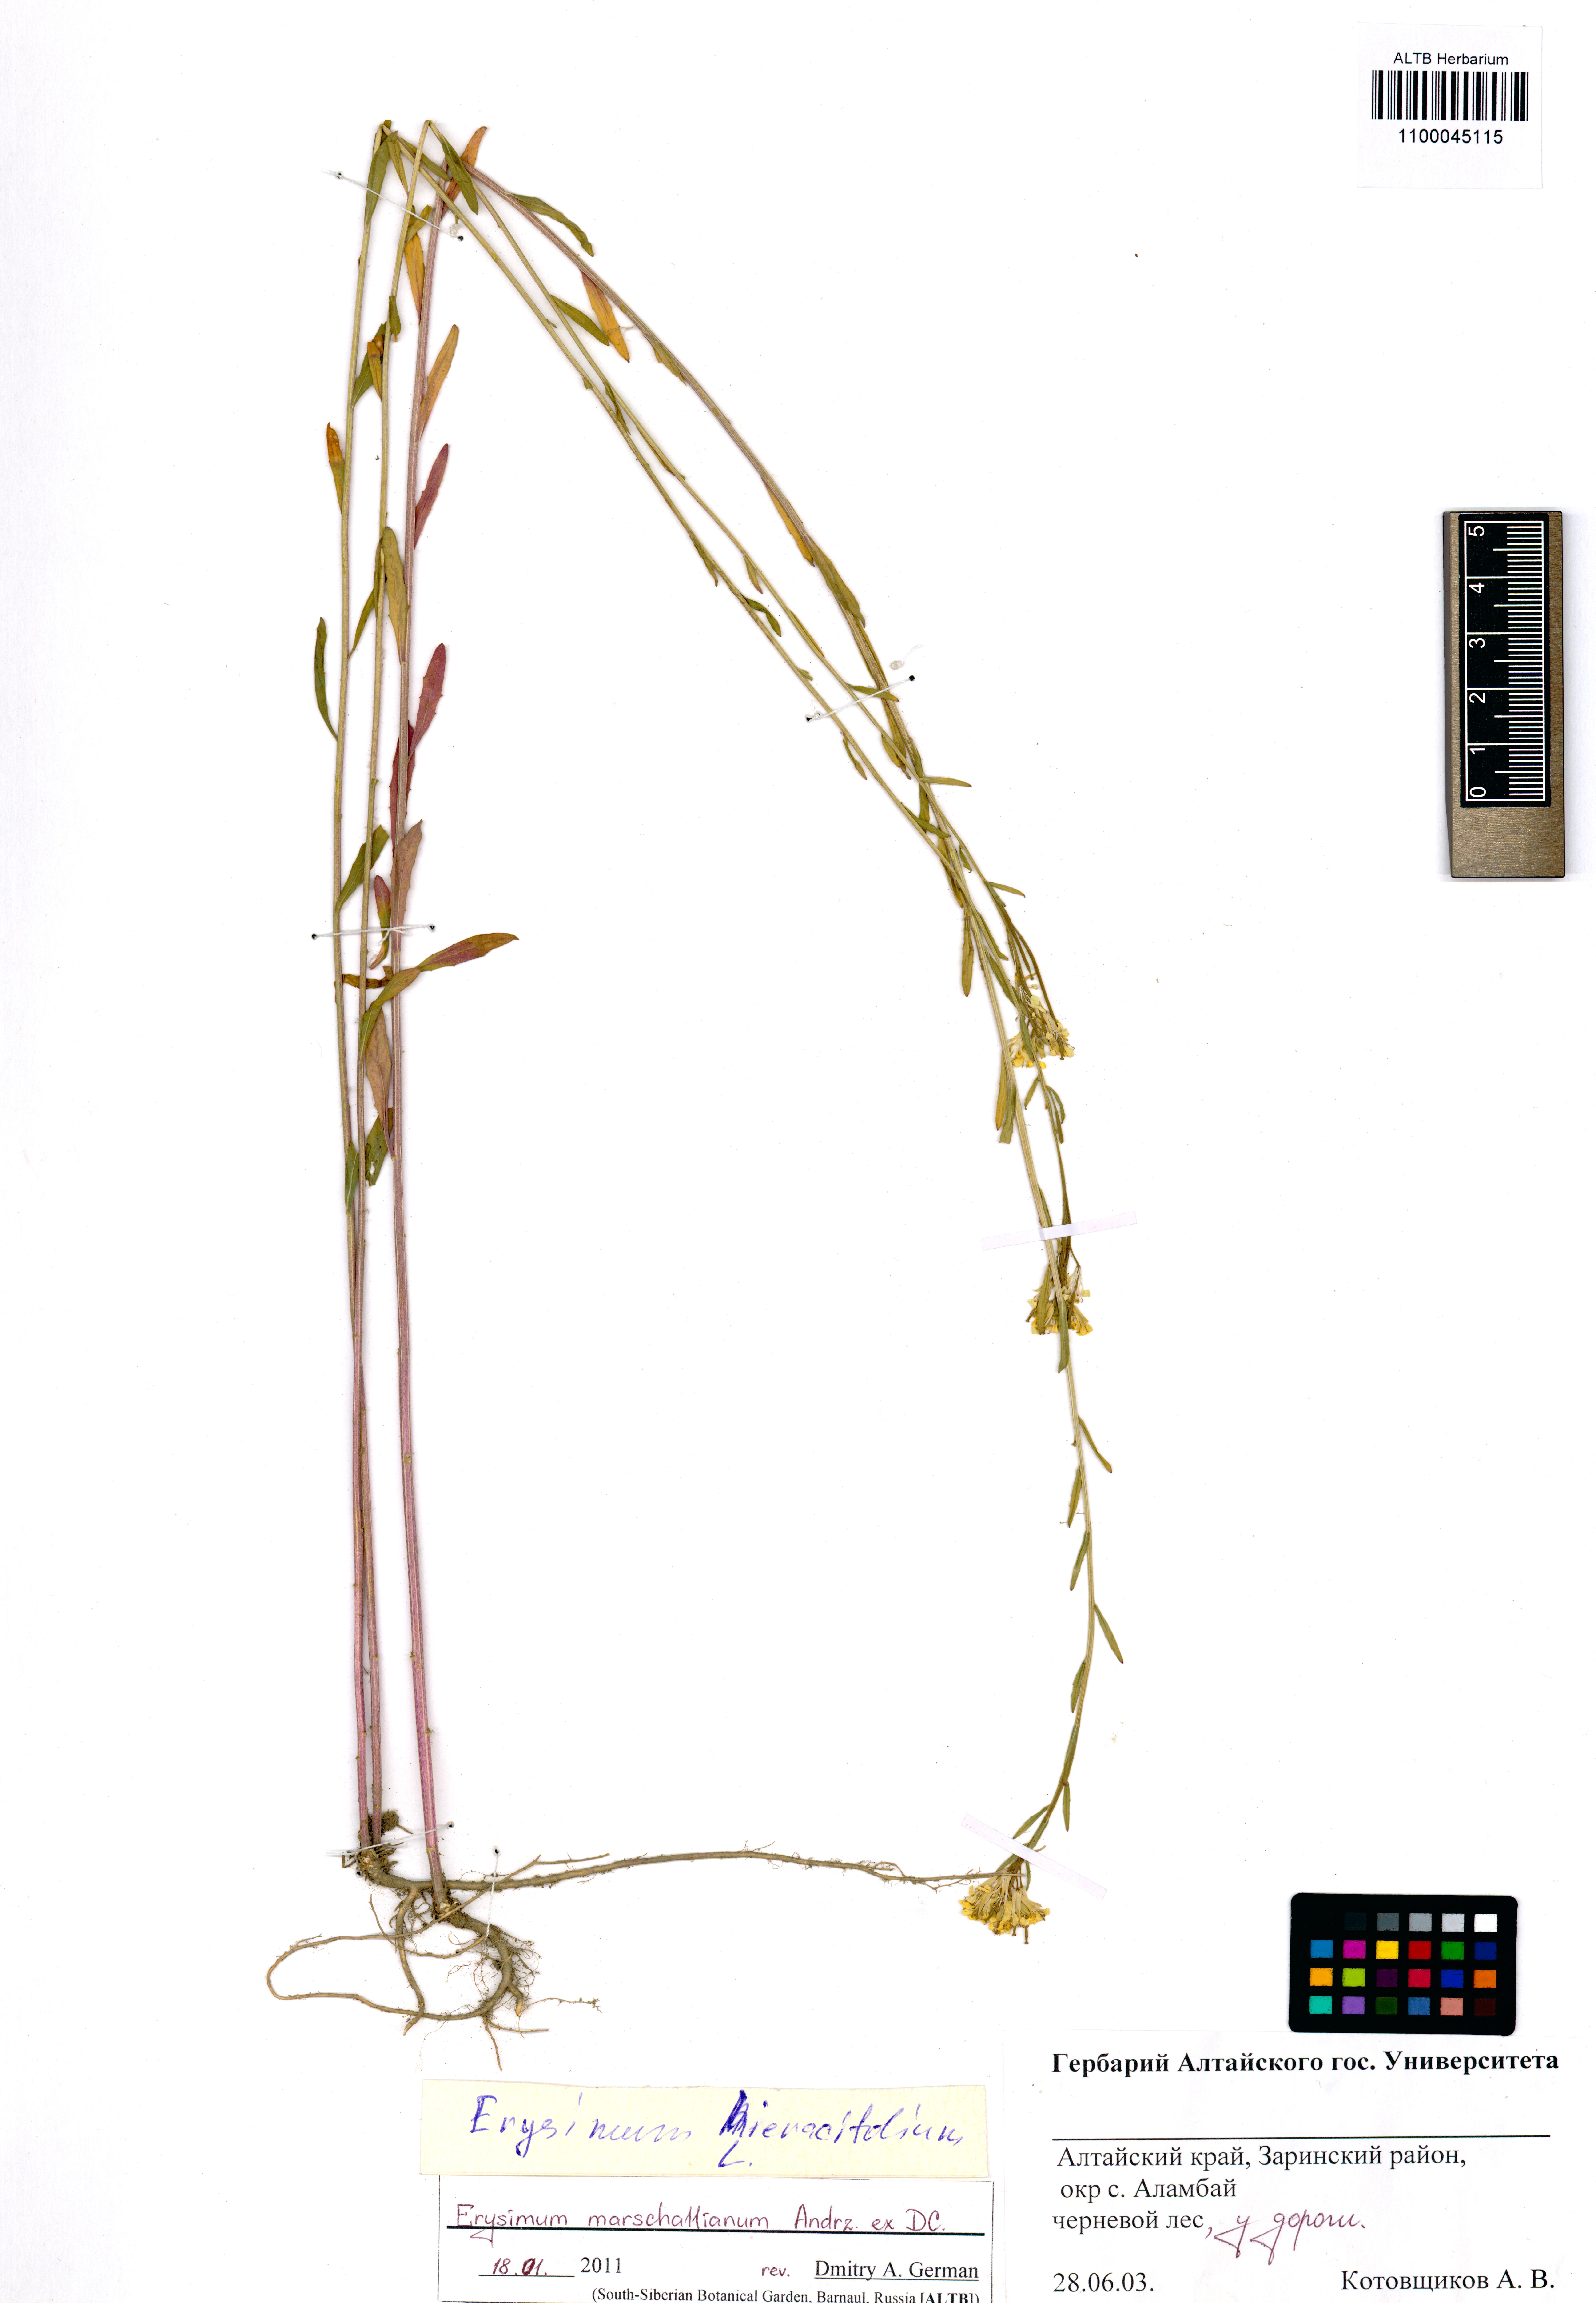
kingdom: Plantae
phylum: Tracheophyta
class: Magnoliopsida
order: Brassicales
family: Brassicaceae
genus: Erysimum
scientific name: Erysimum marschallianum
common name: Hard wallflower
